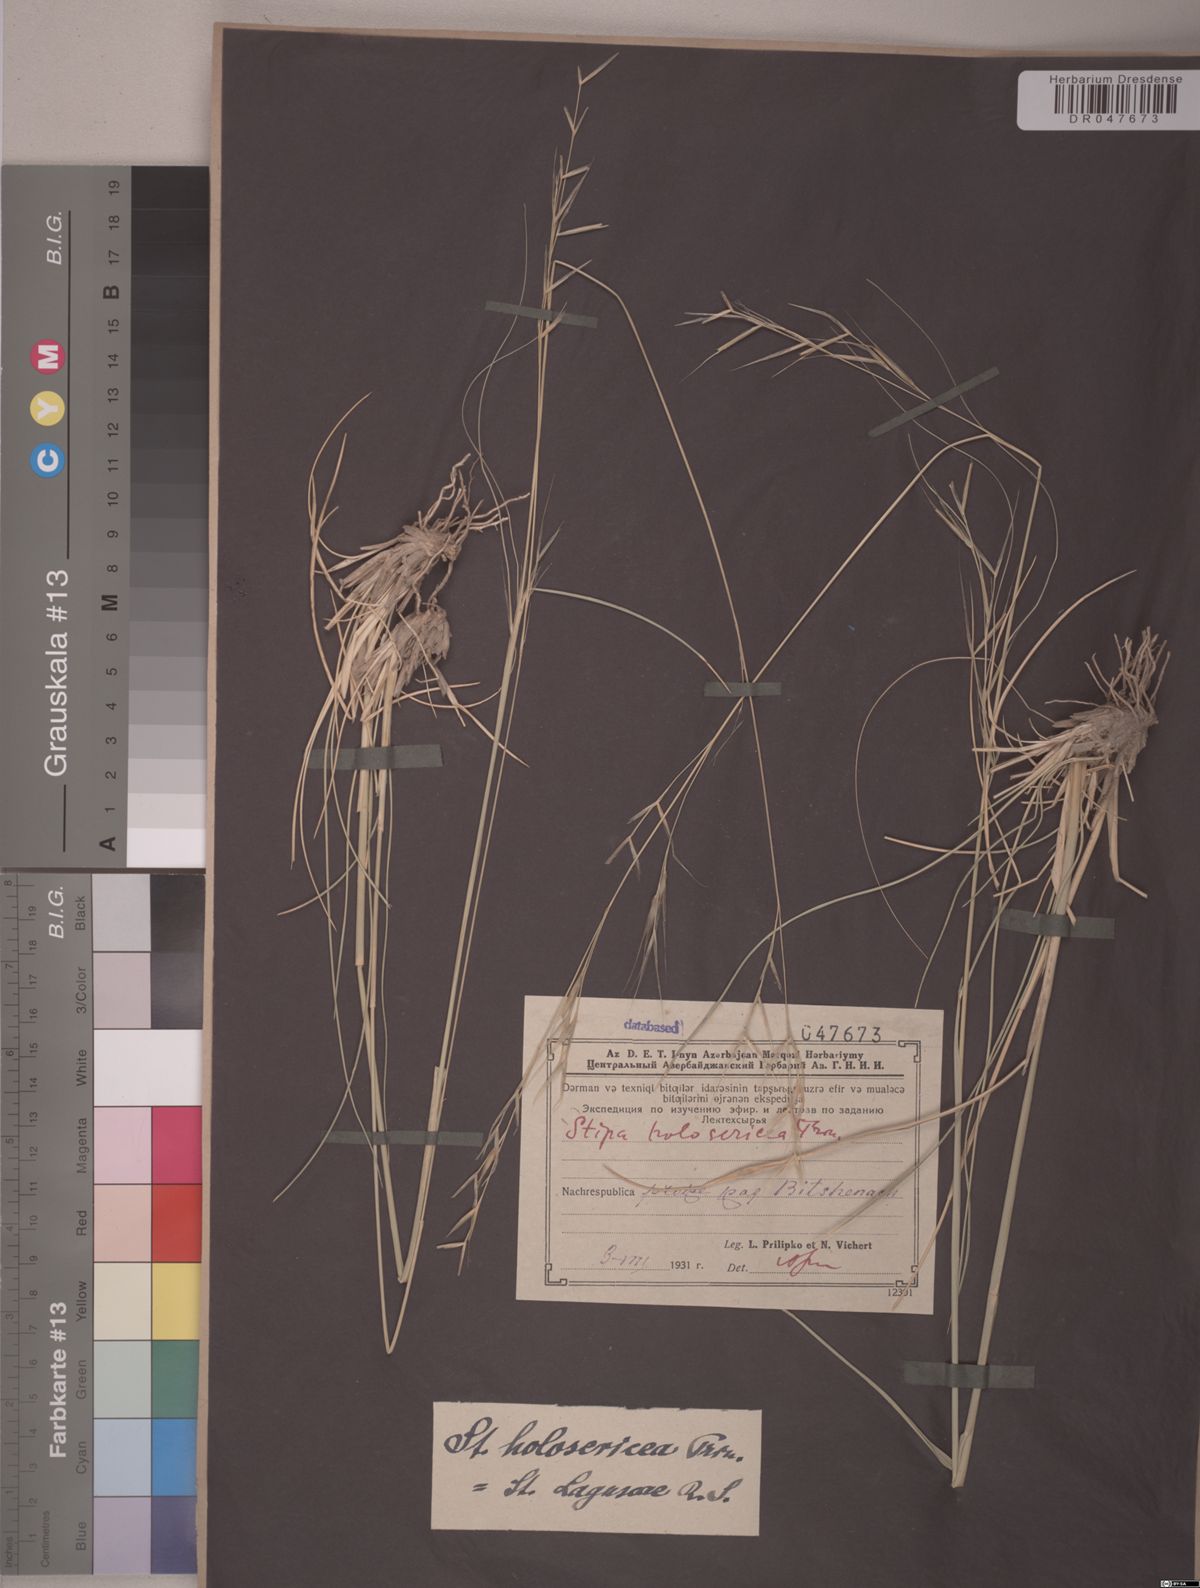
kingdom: Plantae
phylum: Tracheophyta
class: Liliopsida
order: Poales
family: Poaceae
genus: Stipa
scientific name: Stipa holosericea
